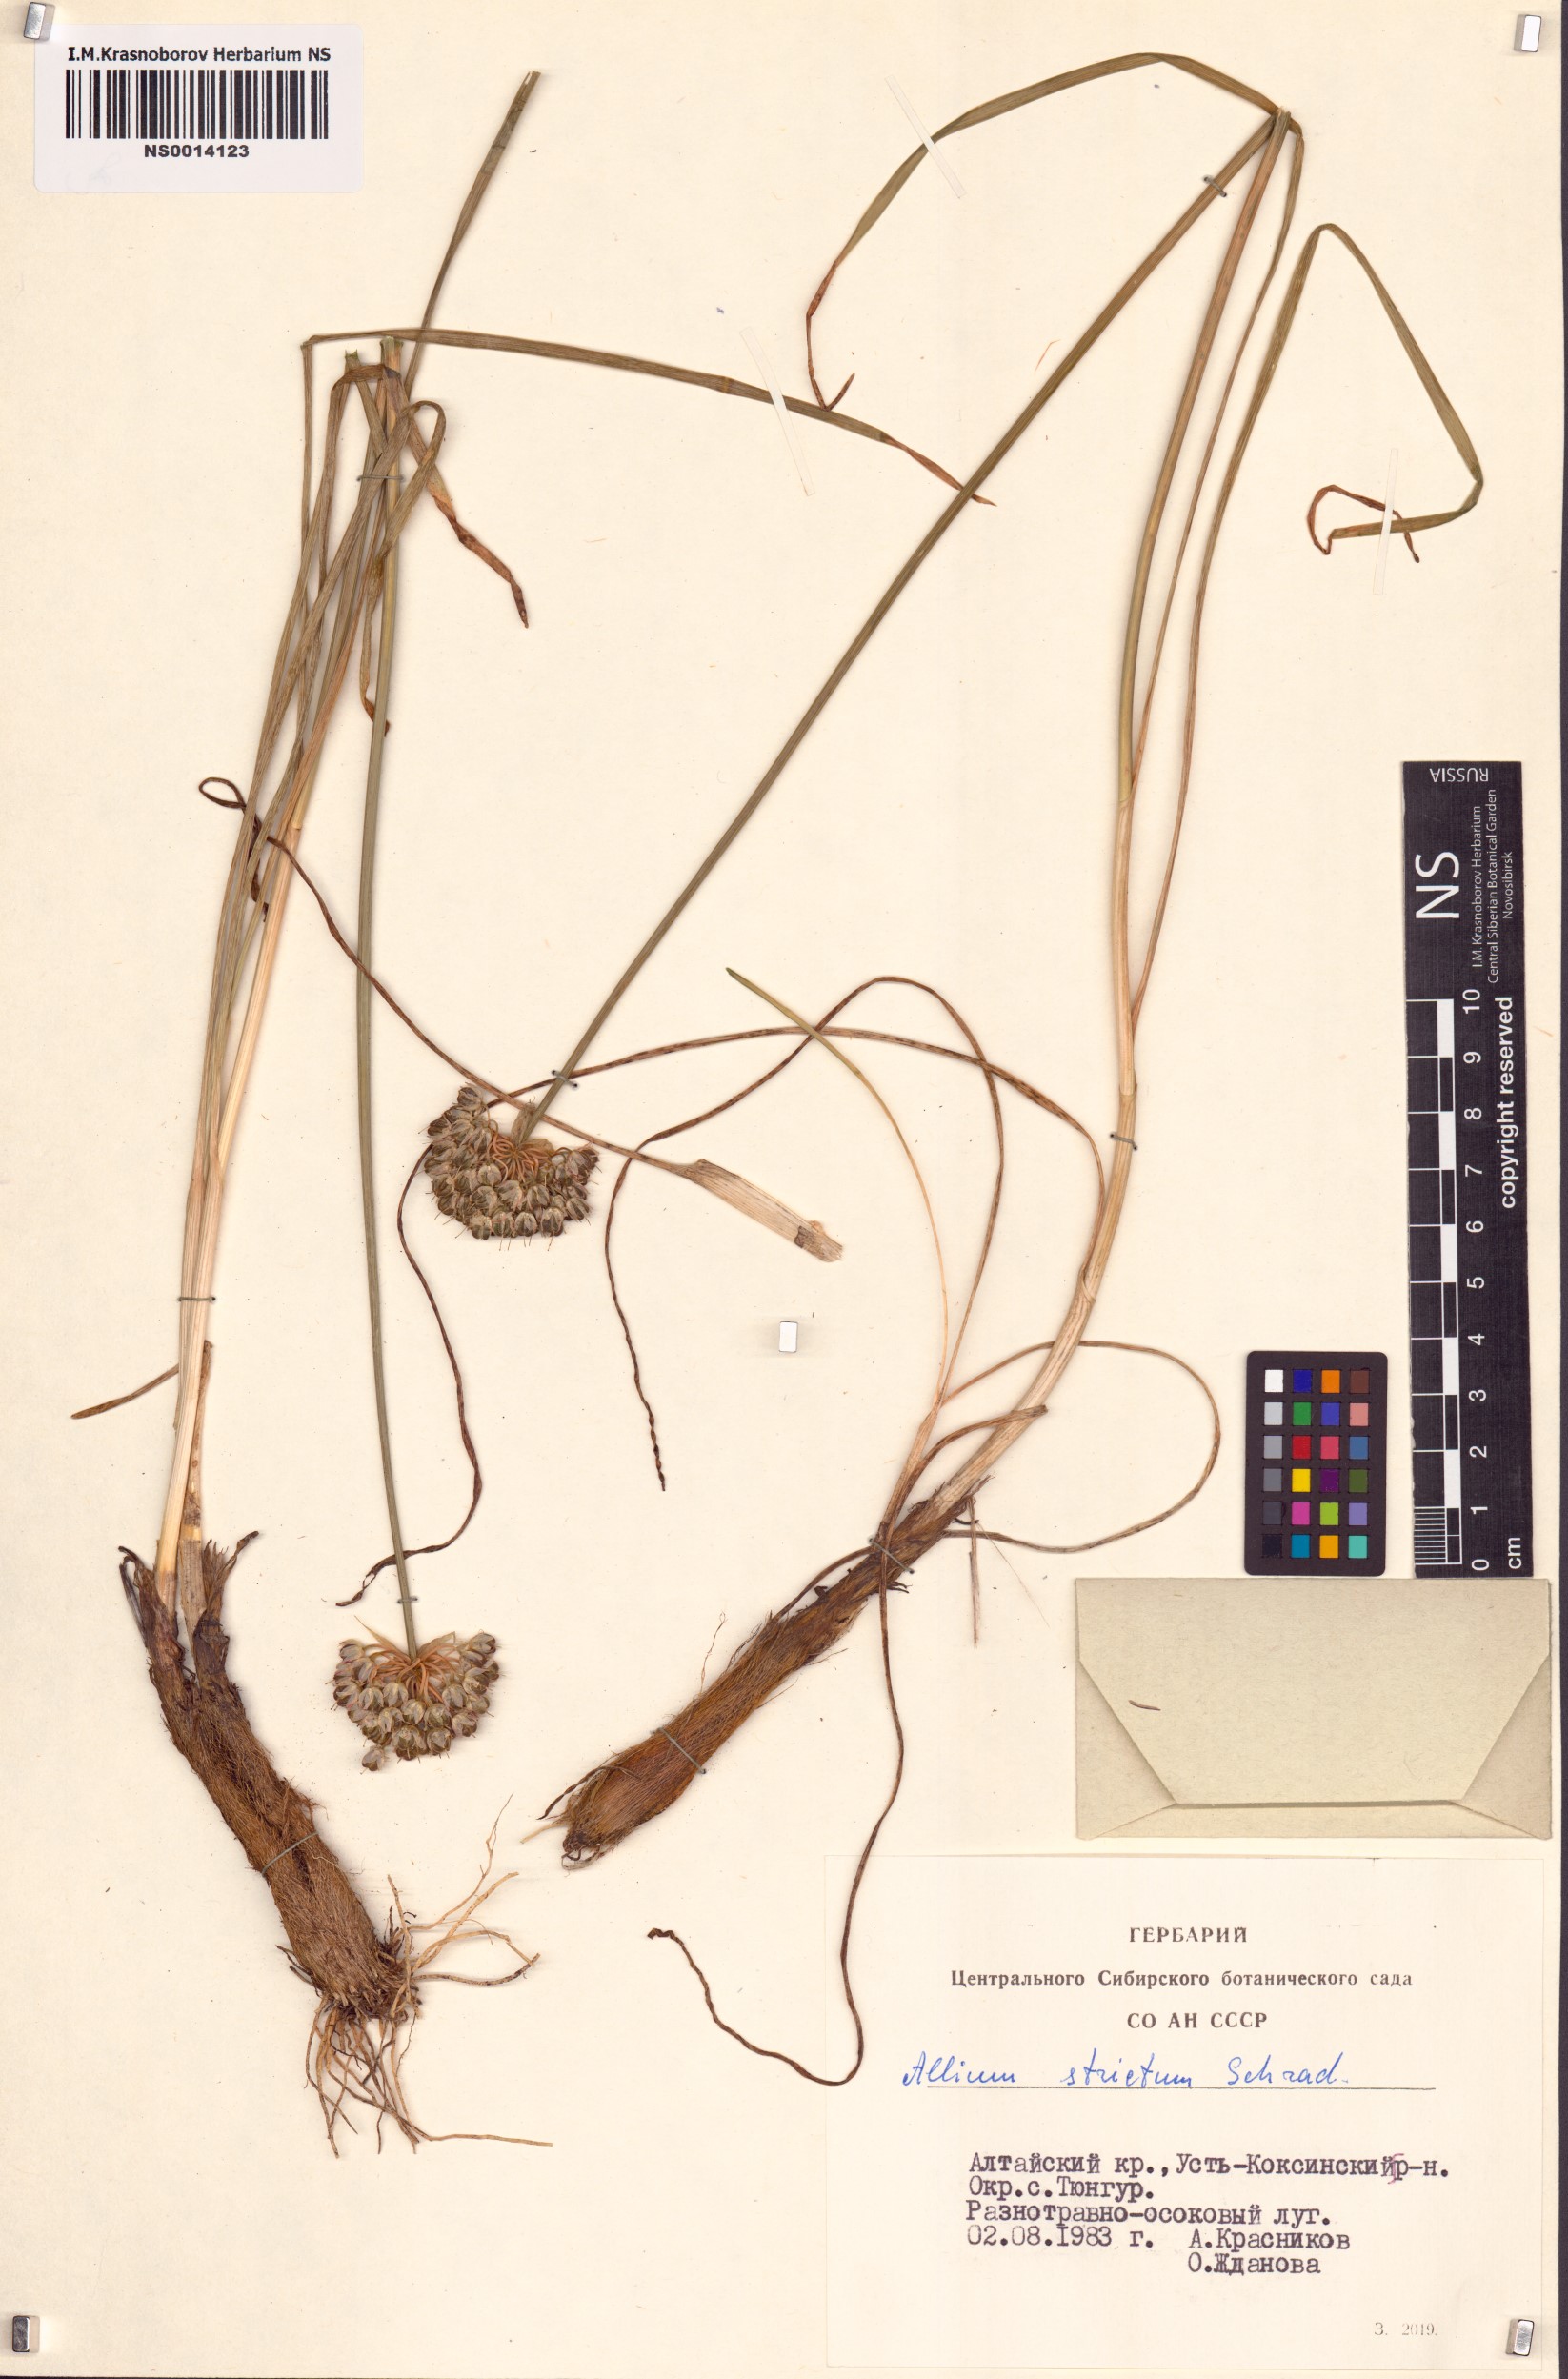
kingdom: Plantae
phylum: Tracheophyta
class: Liliopsida
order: Asparagales
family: Amaryllidaceae
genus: Allium
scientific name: Allium strictum
